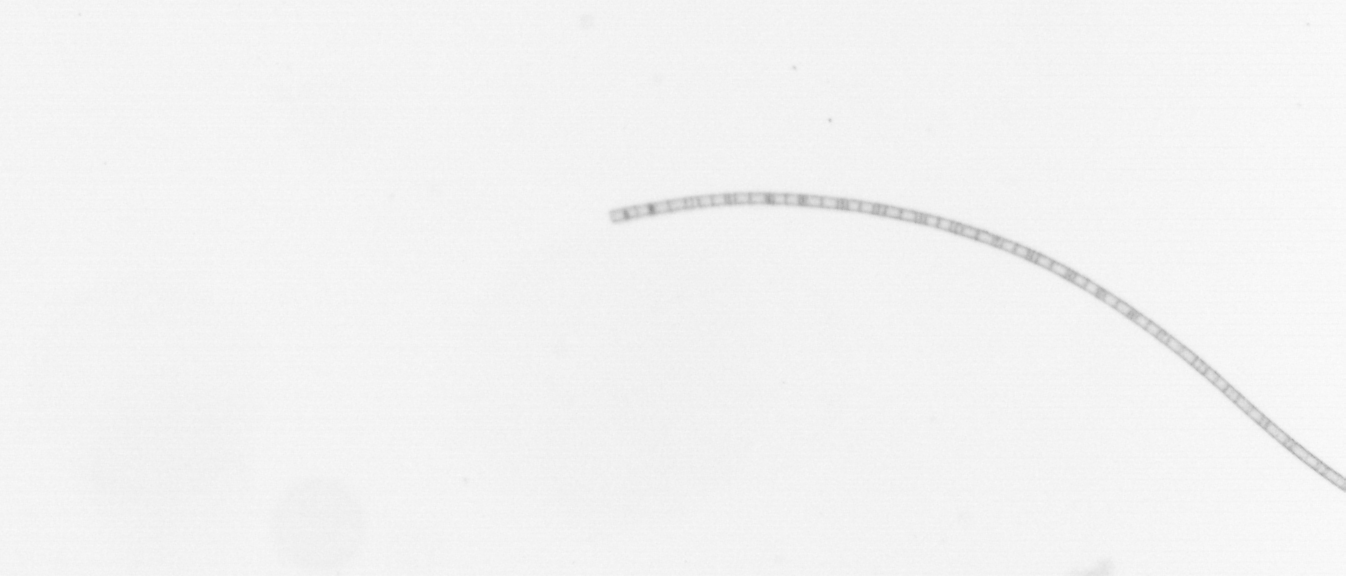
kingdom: Chromista
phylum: Ochrophyta
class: Bacillariophyceae
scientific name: Bacillariophyceae
